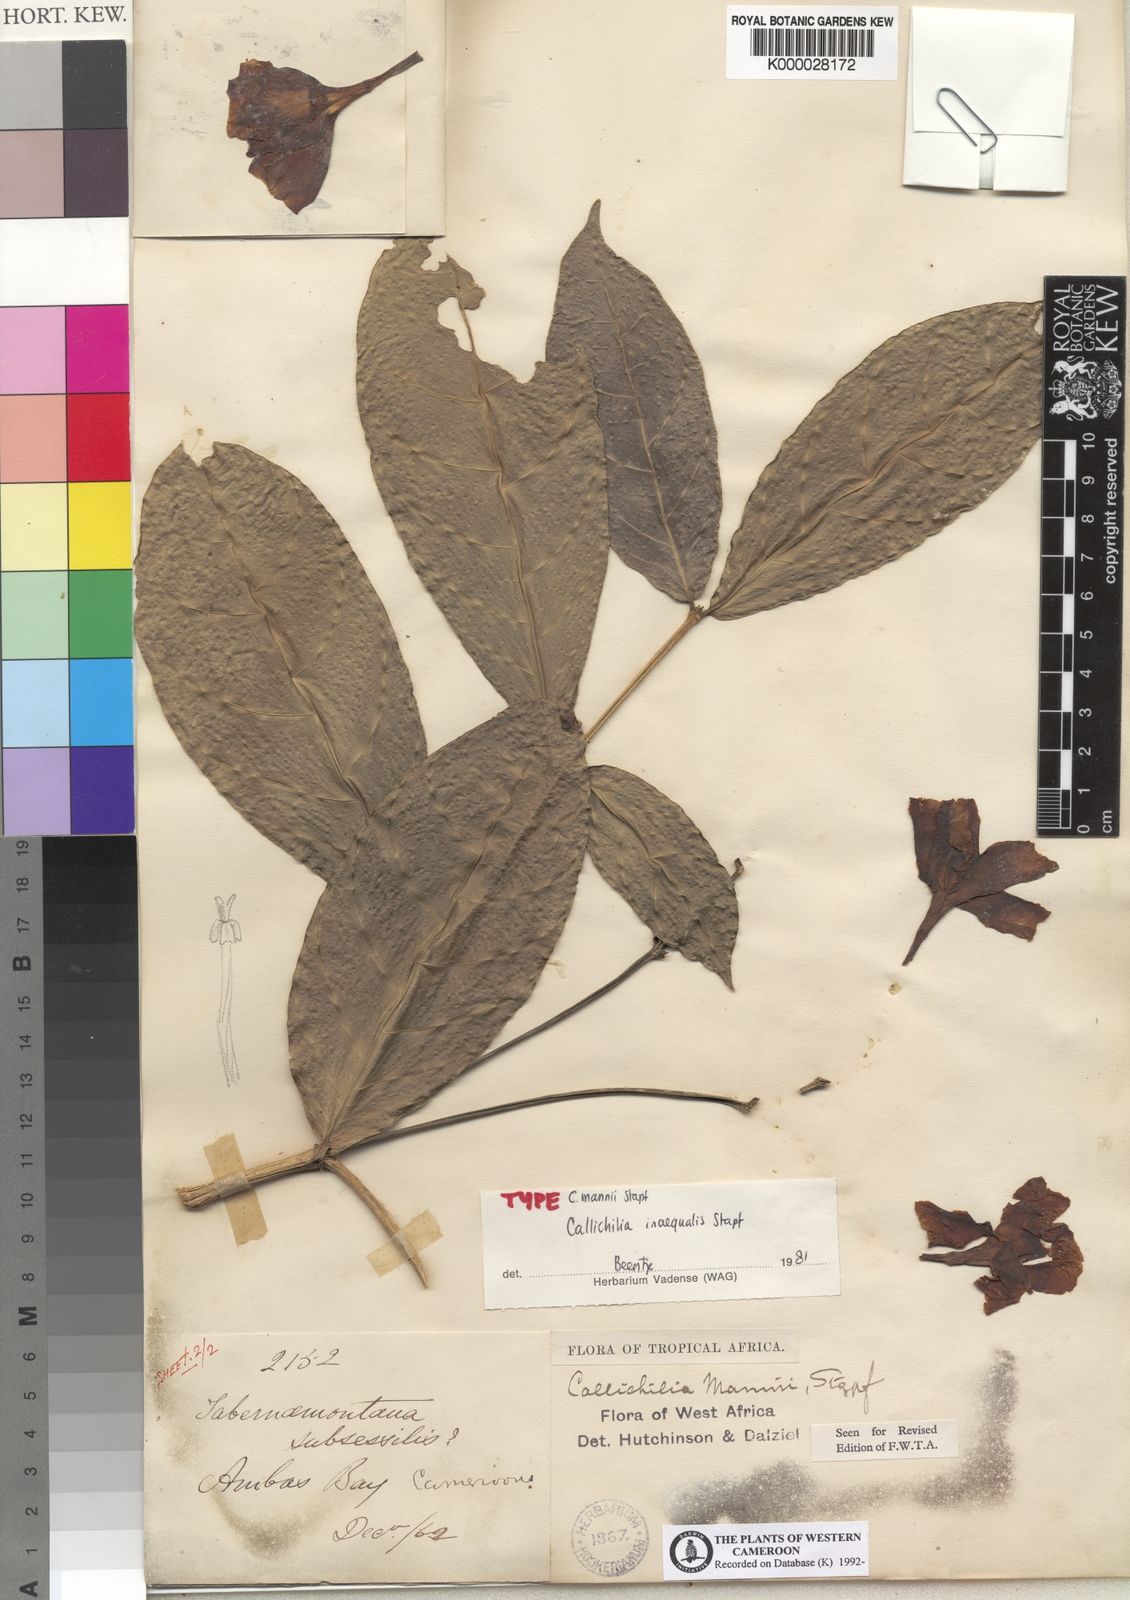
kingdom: Plantae
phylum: Tracheophyta
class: Magnoliopsida
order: Gentianales
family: Apocynaceae
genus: Callichilia
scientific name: Callichilia inaequalis
